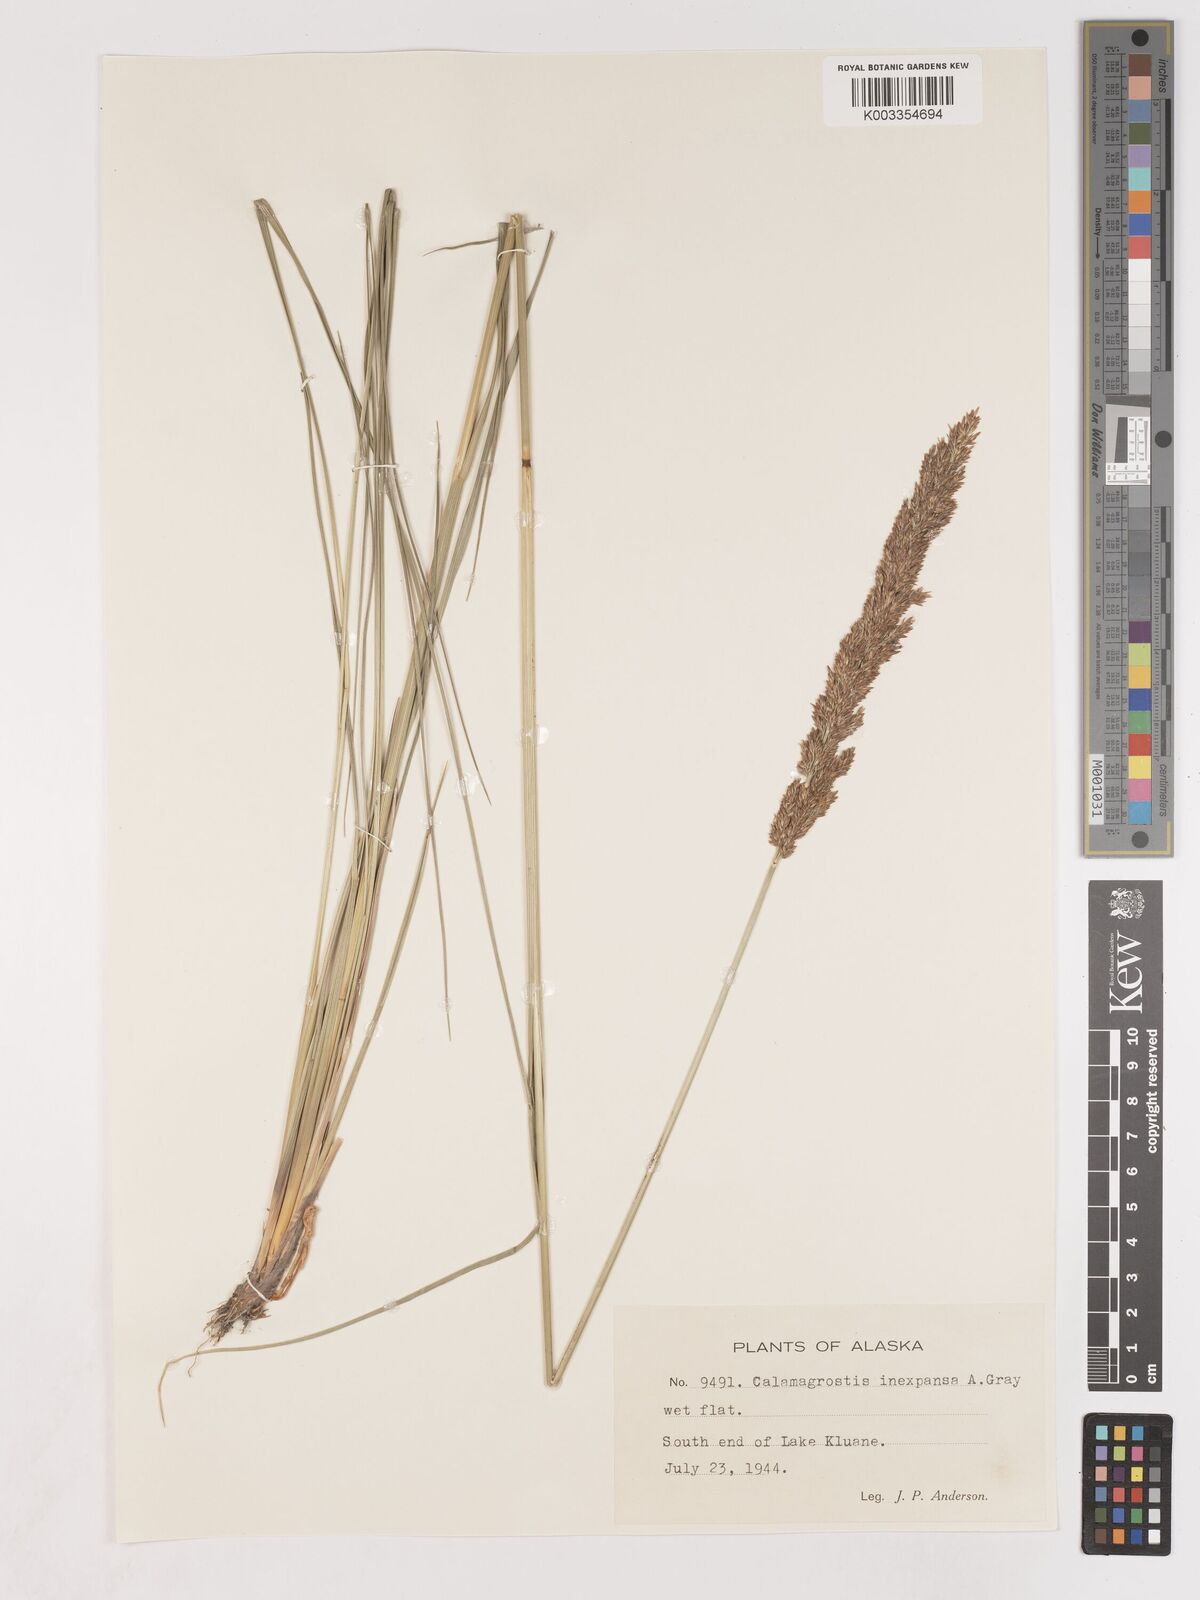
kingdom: Plantae
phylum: Tracheophyta
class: Liliopsida
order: Poales
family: Poaceae
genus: Cinnagrostis
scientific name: Cinnagrostis recta
